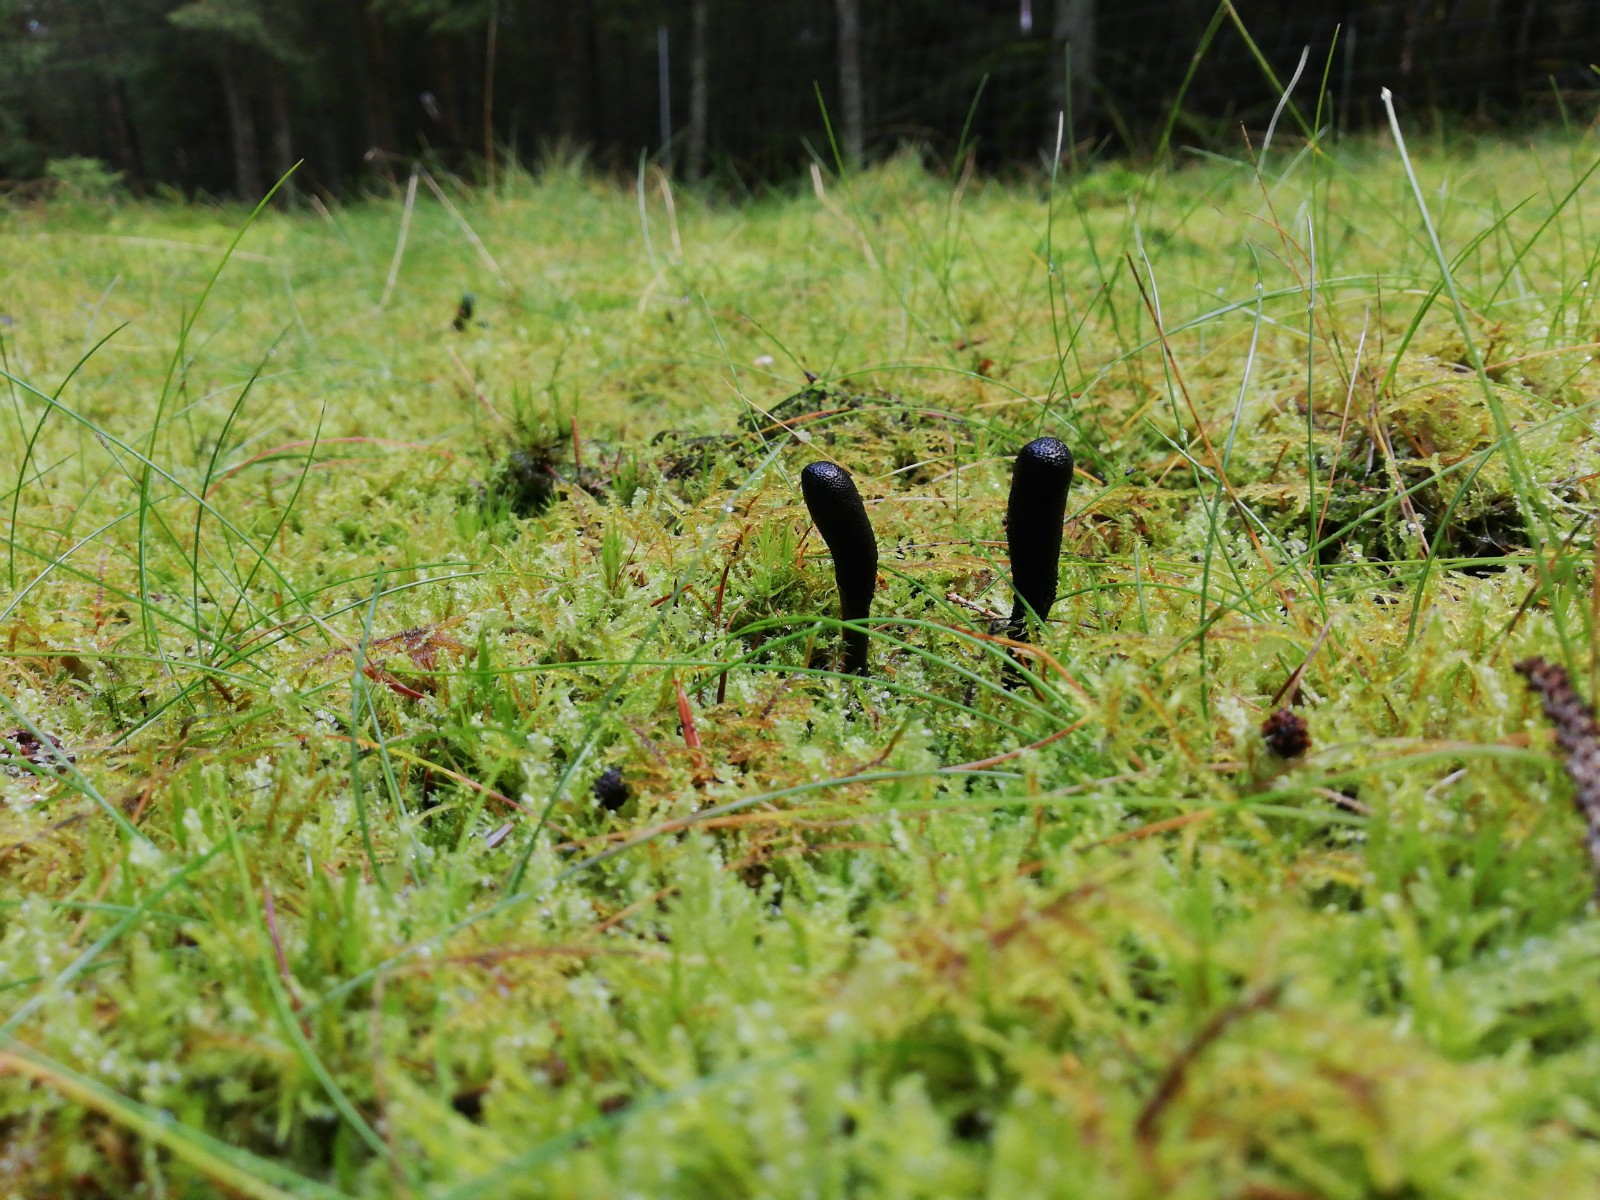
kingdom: Fungi
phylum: Ascomycota
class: Sordariomycetes
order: Hypocreales
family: Ophiocordycipitaceae
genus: Tolypocladium
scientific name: Tolypocladium ophioglossoides
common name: slank snyltekølle
